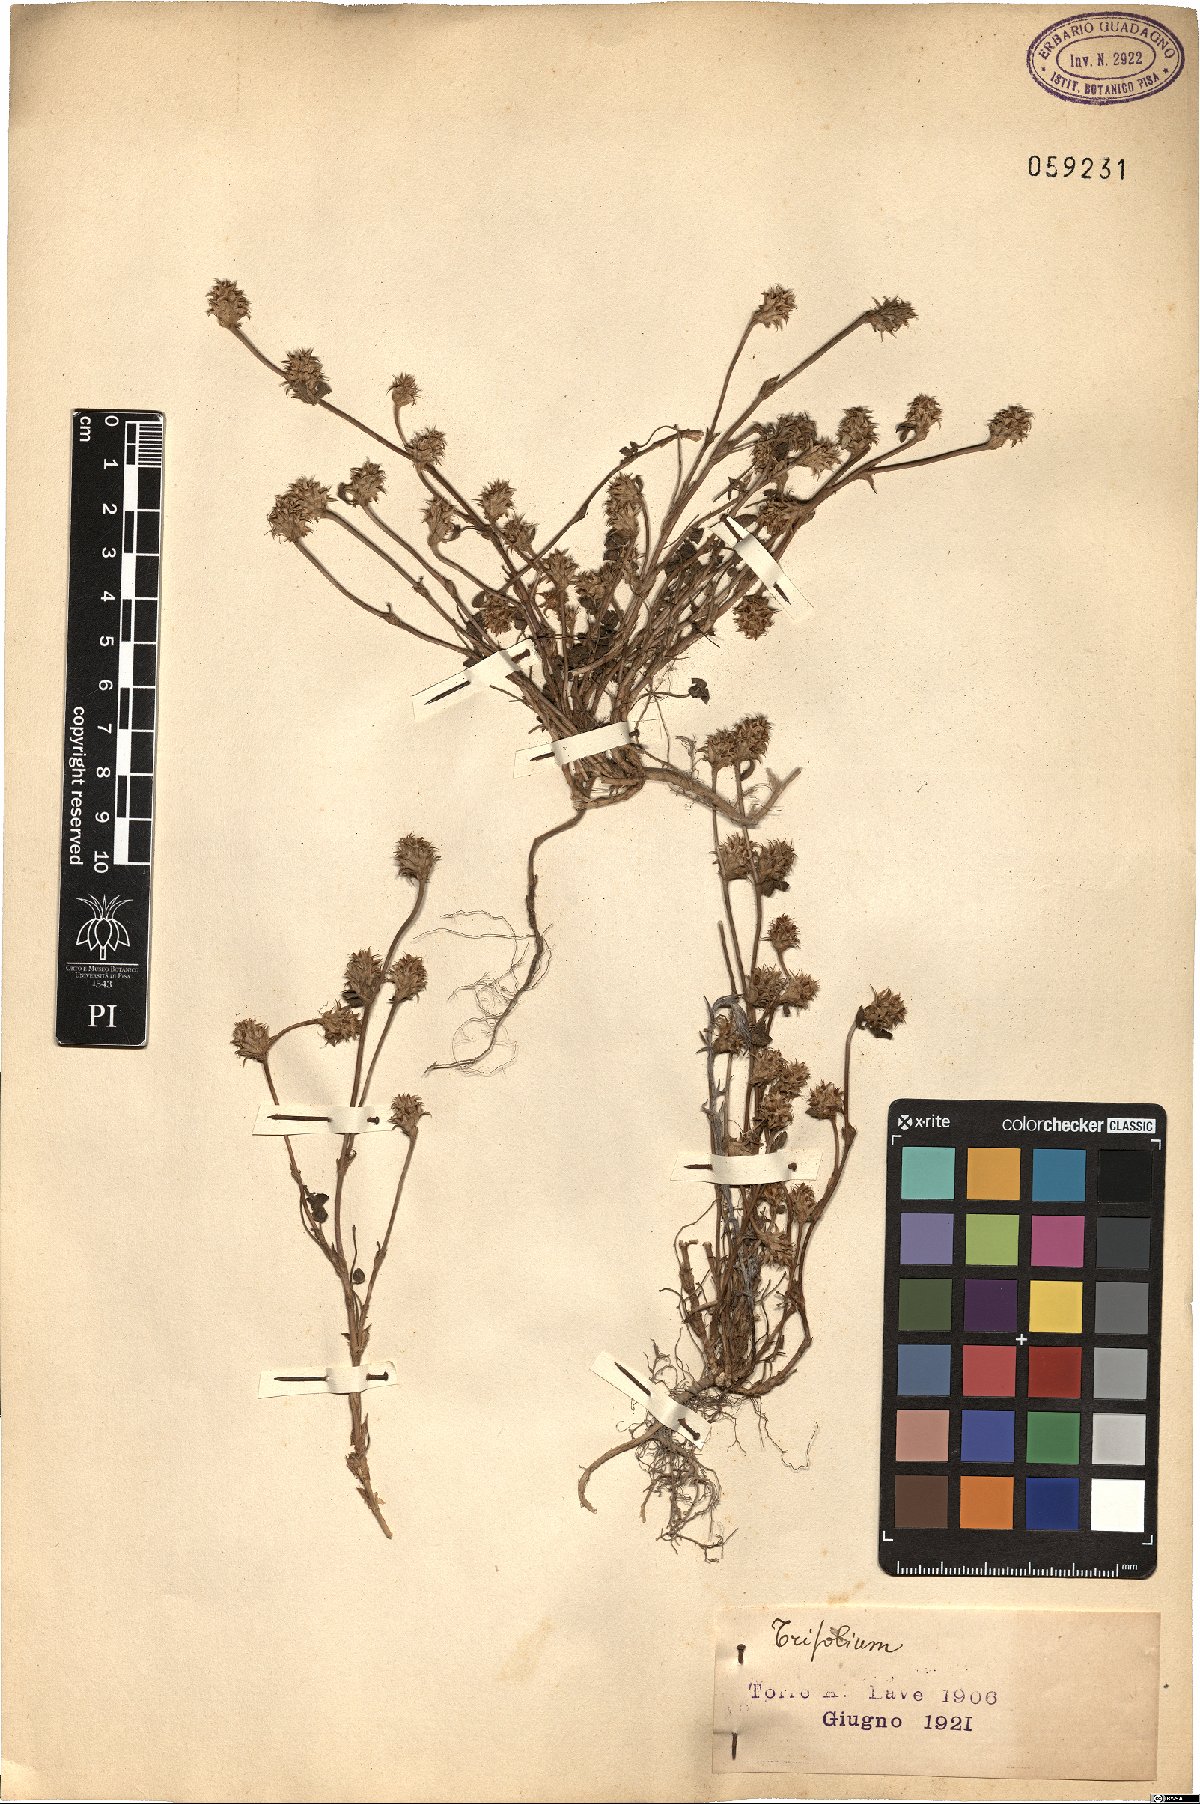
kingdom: Plantae
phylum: Tracheophyta
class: Magnoliopsida
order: Fabales
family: Fabaceae
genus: Trifolium
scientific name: Trifolium
